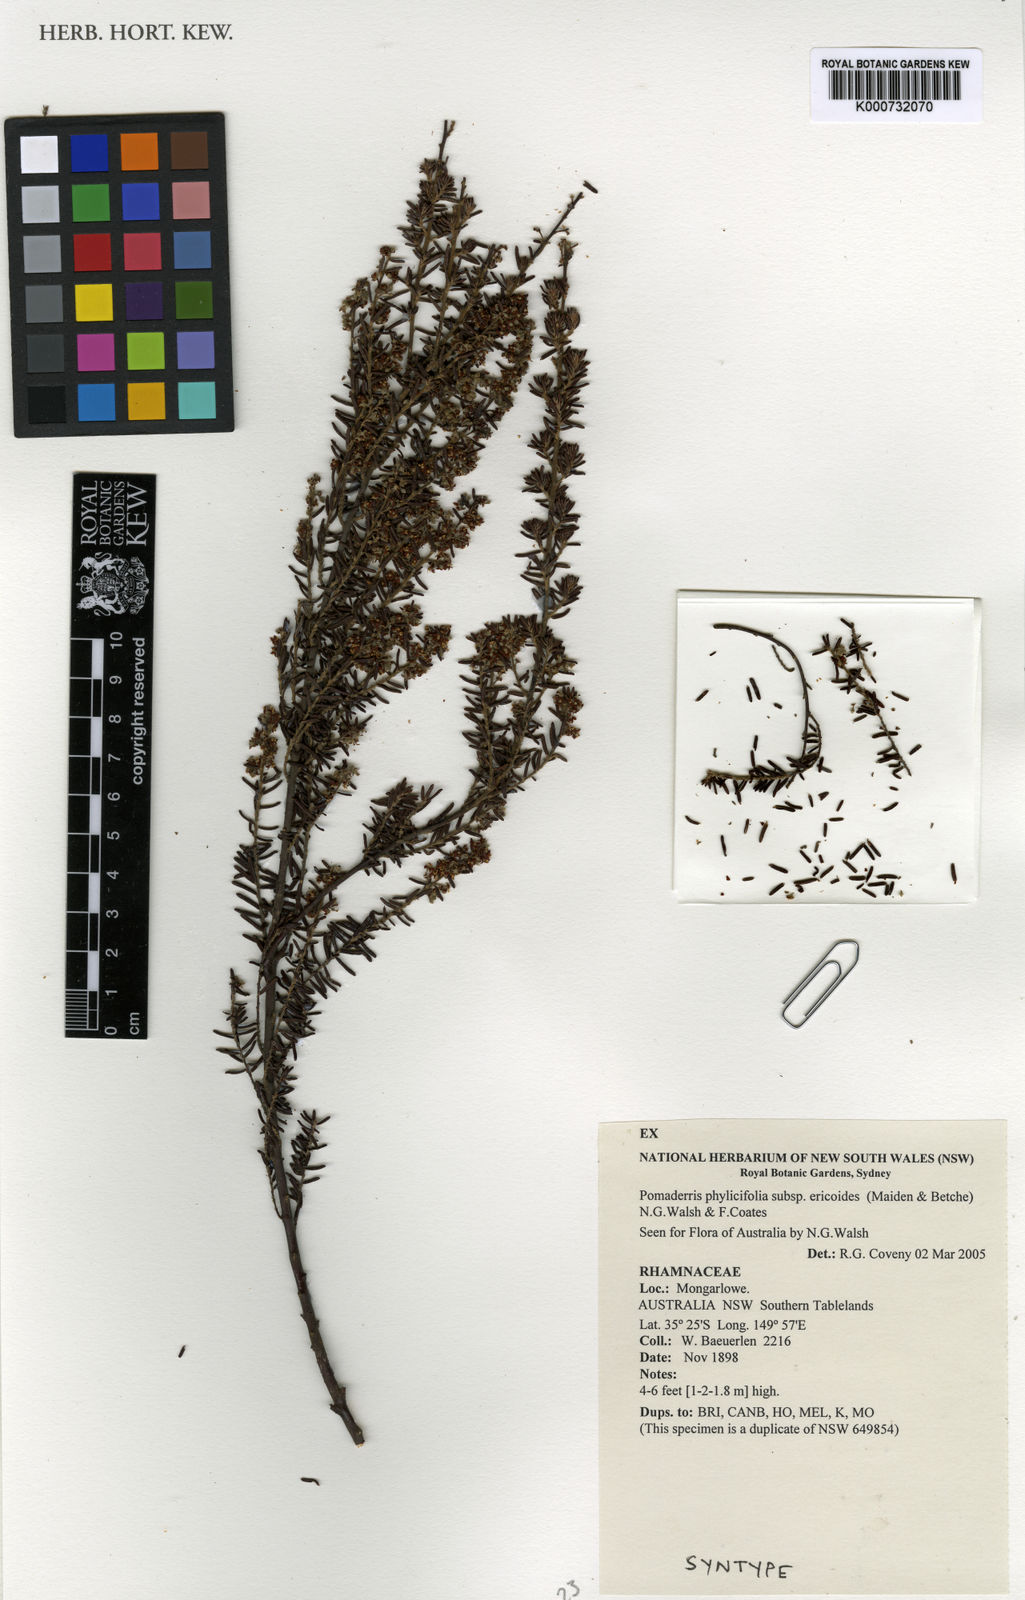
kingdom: Plantae
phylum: Tracheophyta
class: Magnoliopsida
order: Rosales
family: Rhamnaceae
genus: Pomaderris
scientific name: Pomaderris phylicifolia
